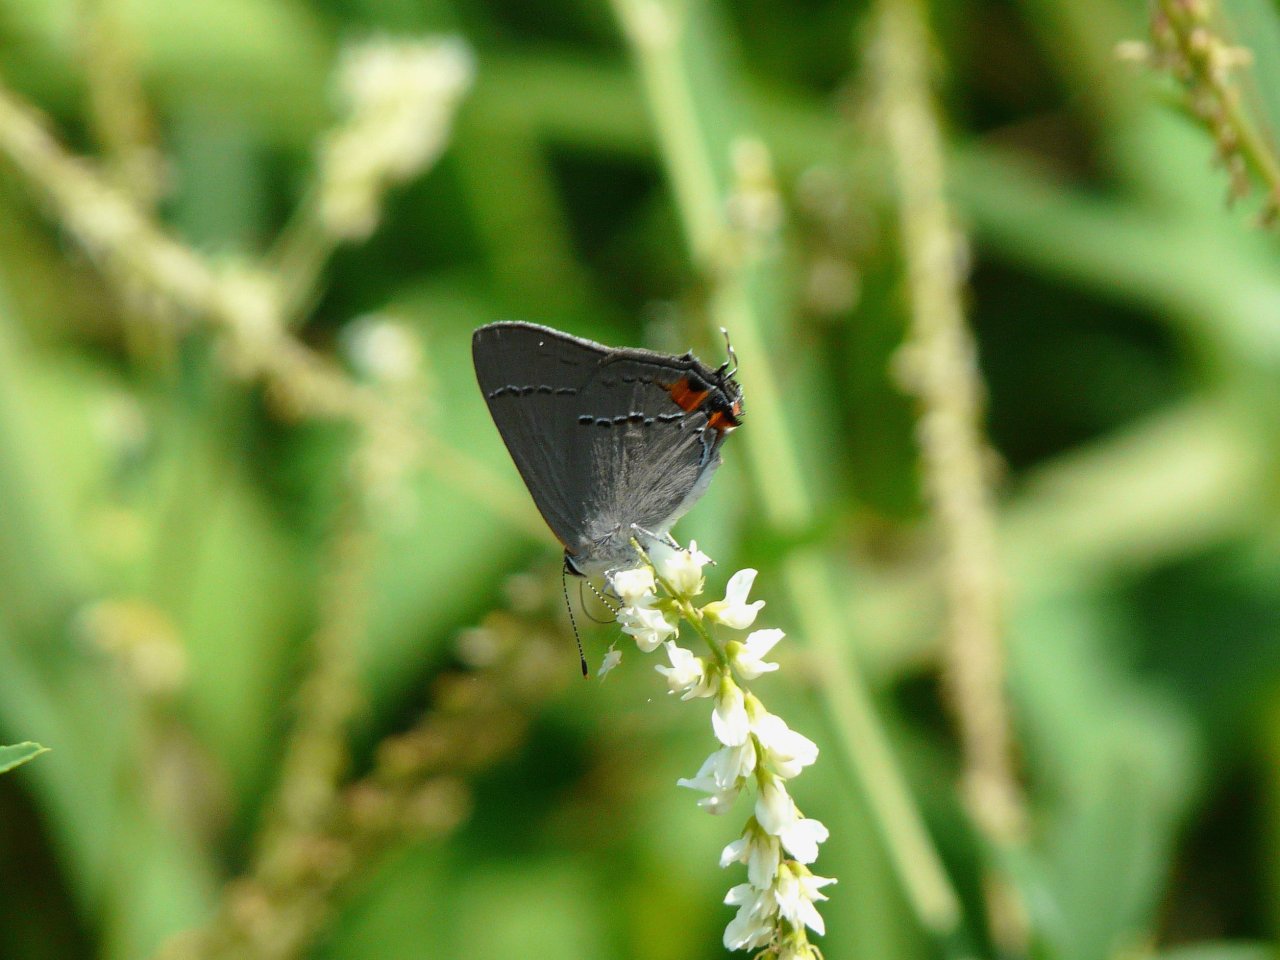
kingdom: Animalia
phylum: Arthropoda
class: Insecta
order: Lepidoptera
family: Lycaenidae
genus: Strymon
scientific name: Strymon melinus
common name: Gray Hairstreak
